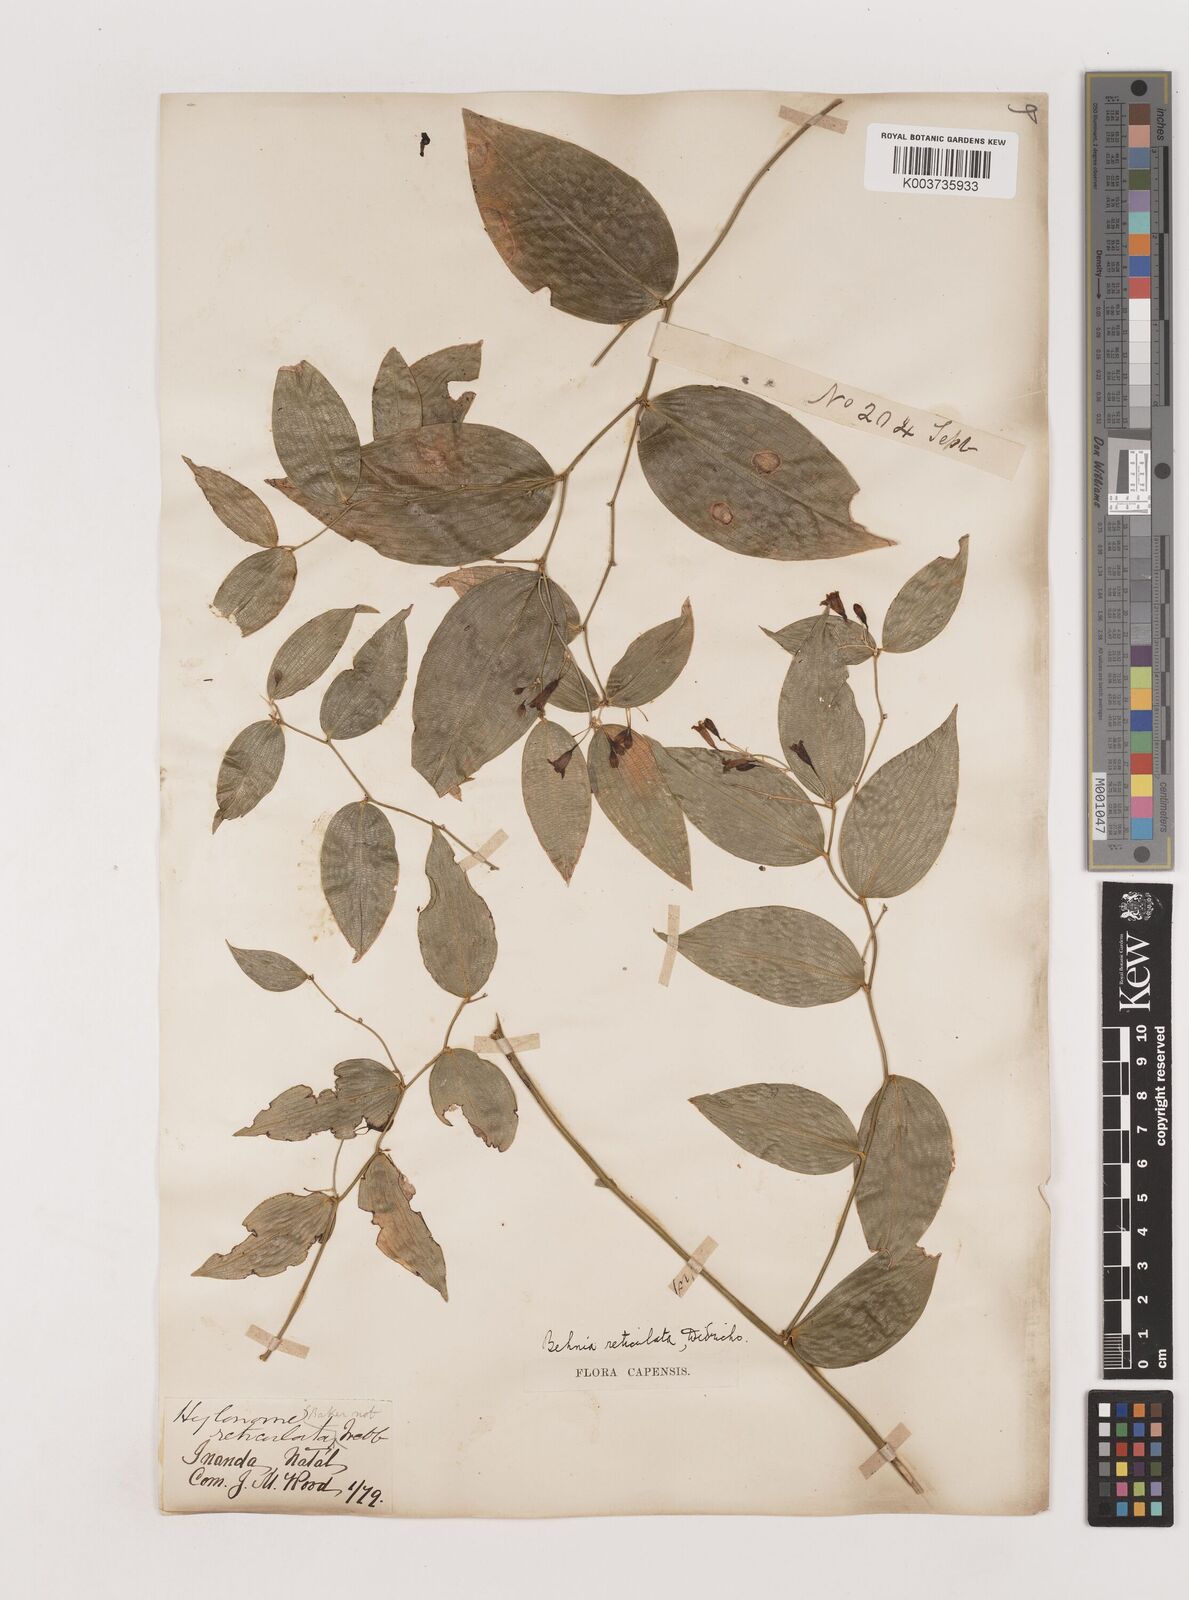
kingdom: Plantae
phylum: Tracheophyta
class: Liliopsida
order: Asparagales
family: Asparagaceae
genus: Behnia
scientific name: Behnia reticulata
